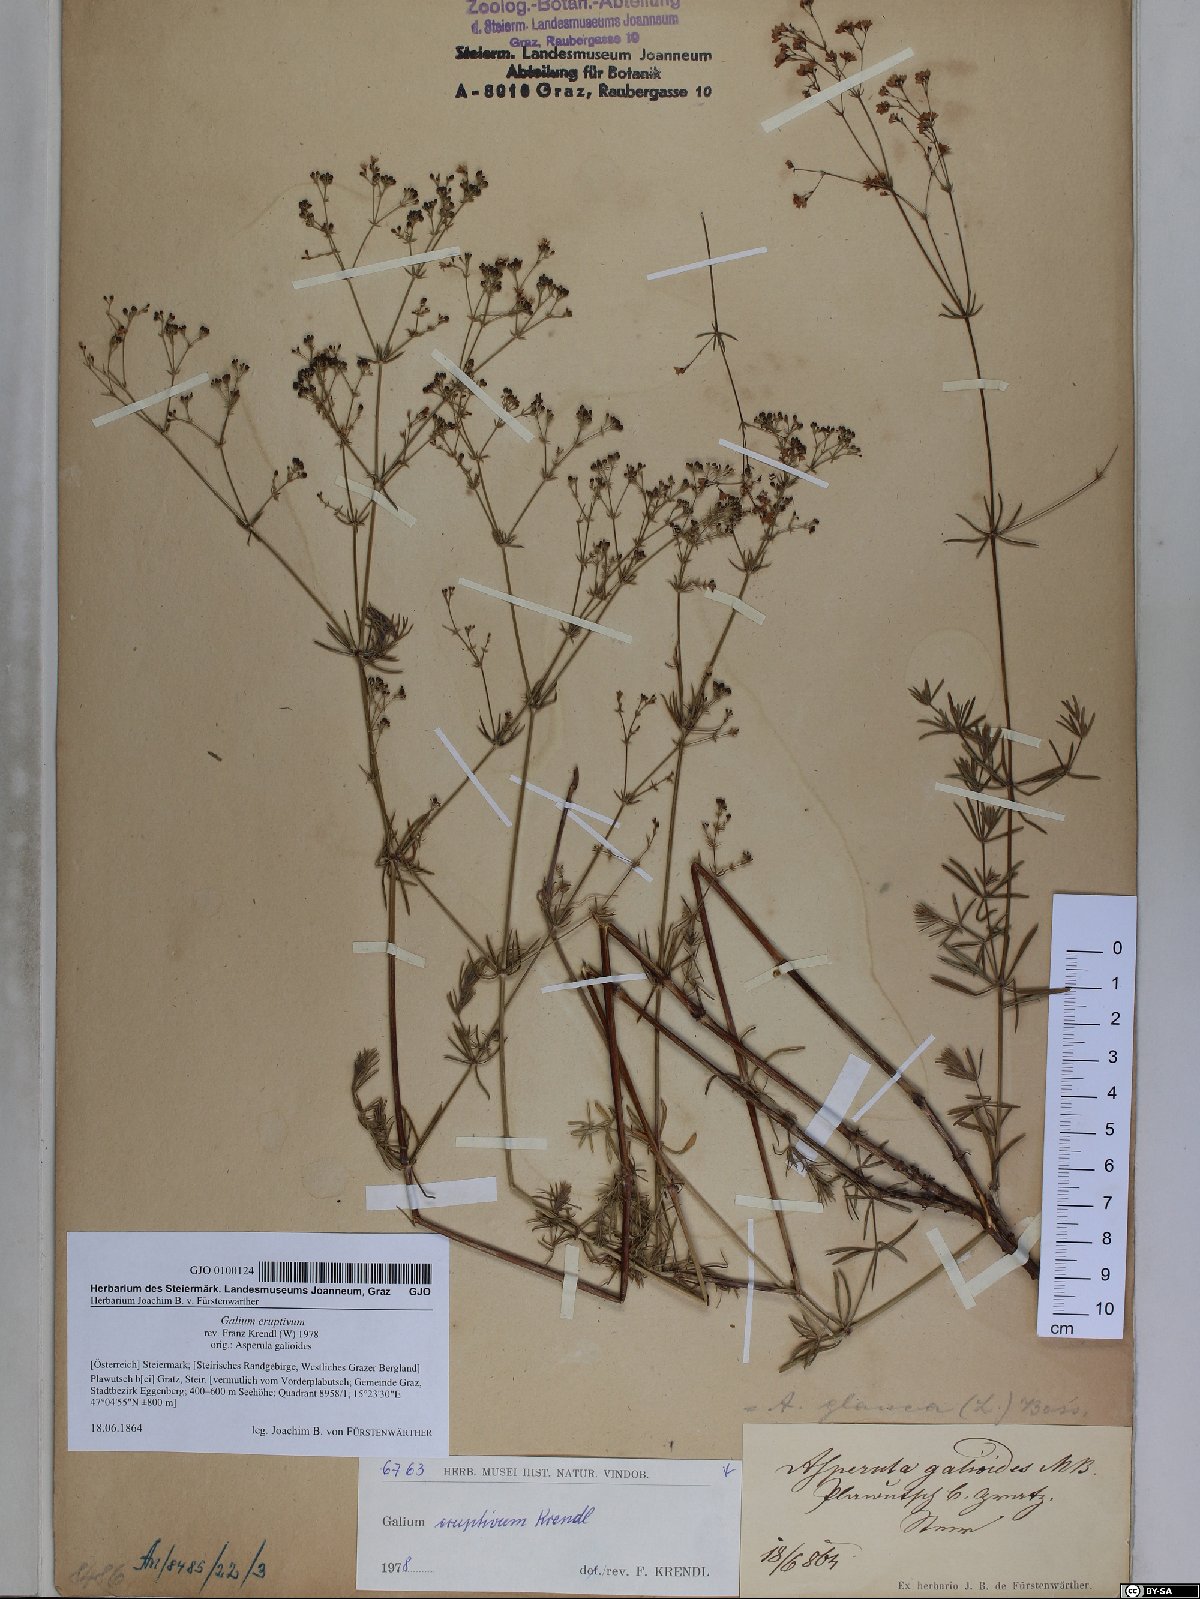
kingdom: Plantae
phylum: Tracheophyta
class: Magnoliopsida
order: Gentianales
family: Rubiaceae
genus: Galium
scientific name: Galium eruptivum
